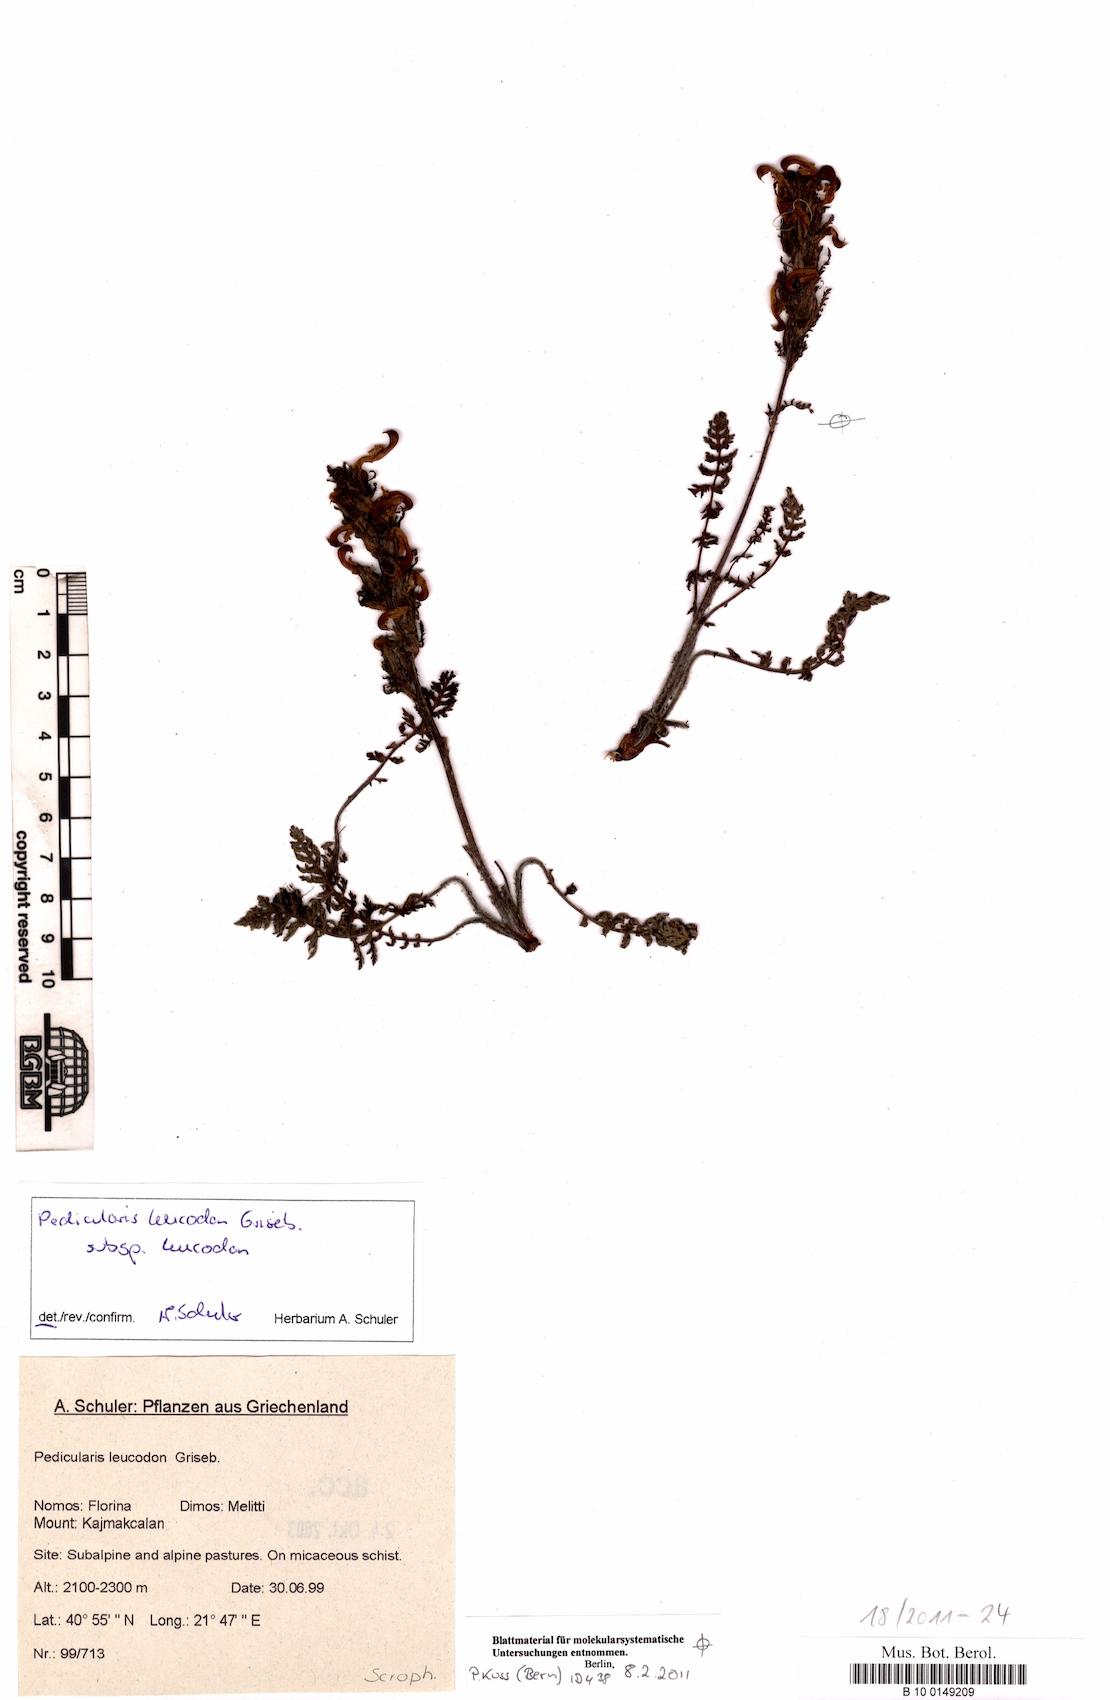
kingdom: Plantae
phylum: Tracheophyta
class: Magnoliopsida
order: Lamiales
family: Orobanchaceae
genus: Pedicularis
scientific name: Pedicularis leucodon
